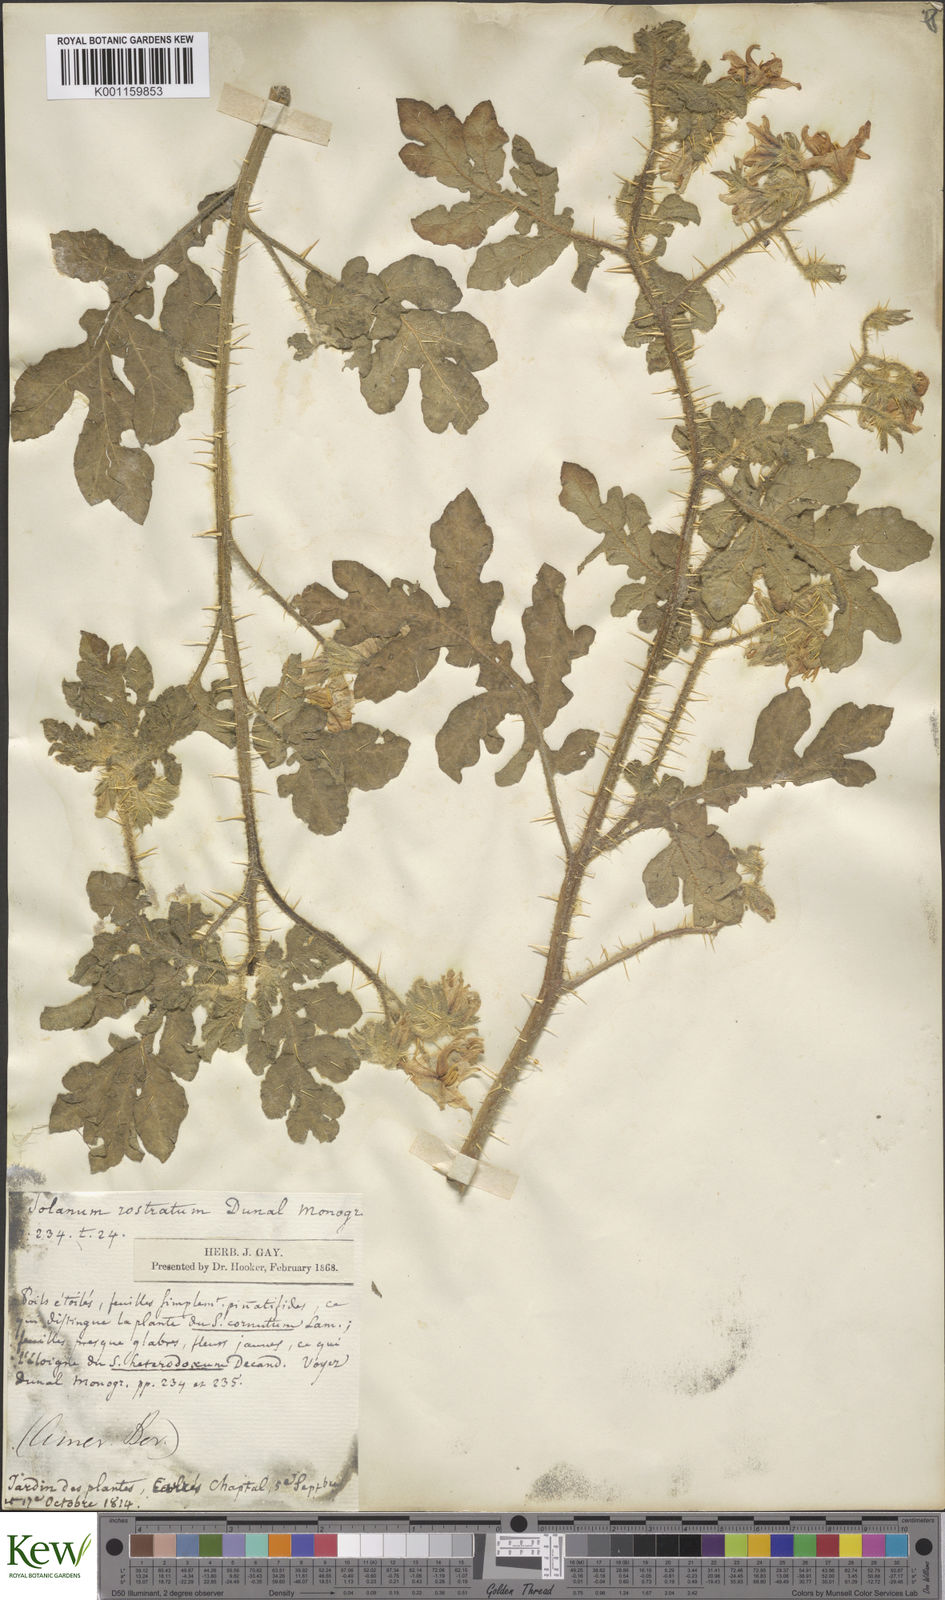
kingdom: Plantae
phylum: Tracheophyta
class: Magnoliopsida
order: Solanales
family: Solanaceae
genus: Solanum
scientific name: Solanum angustifolium
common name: Buffalobur nightshade
